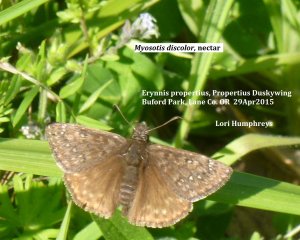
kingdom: Animalia
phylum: Arthropoda
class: Insecta
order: Lepidoptera
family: Hesperiidae
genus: Erynnis
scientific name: Erynnis propertius
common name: Propertius Duskywing
